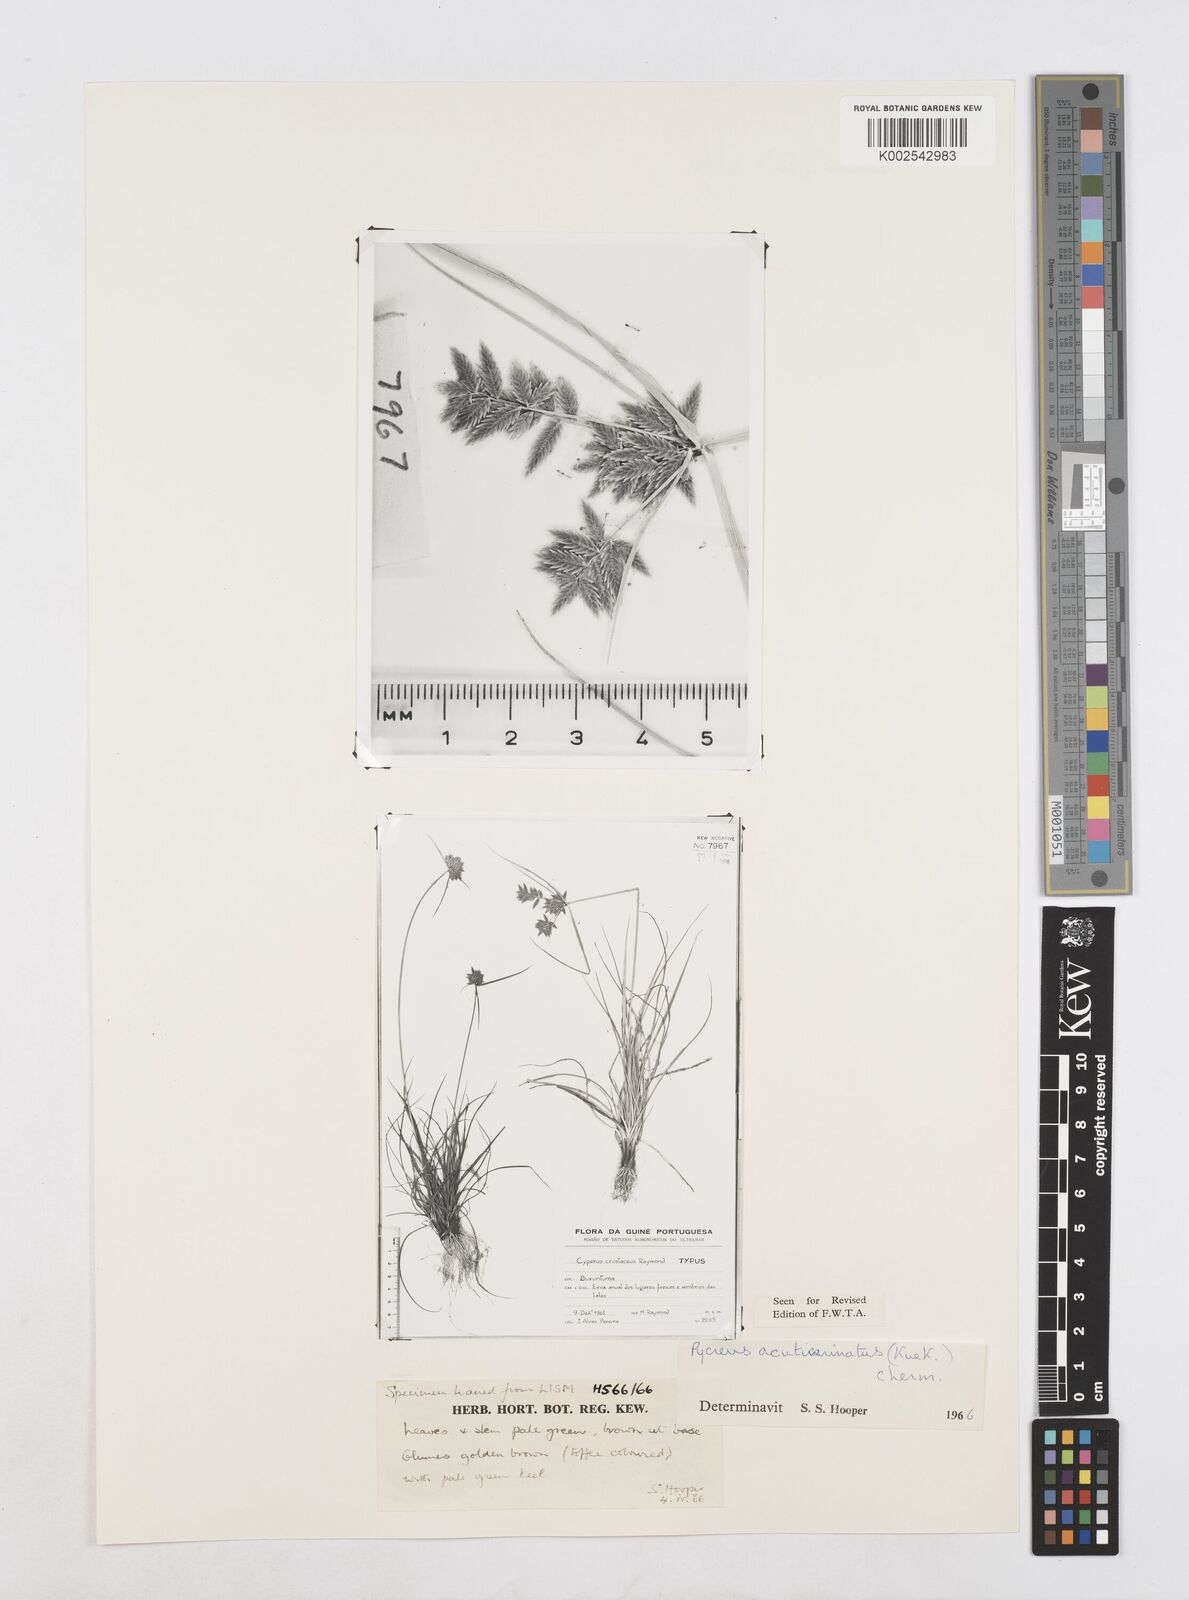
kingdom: Plantae
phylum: Tracheophyta
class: Liliopsida
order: Poales
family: Cyperaceae
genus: Cyperus
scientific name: Cyperus acuticarinatus
